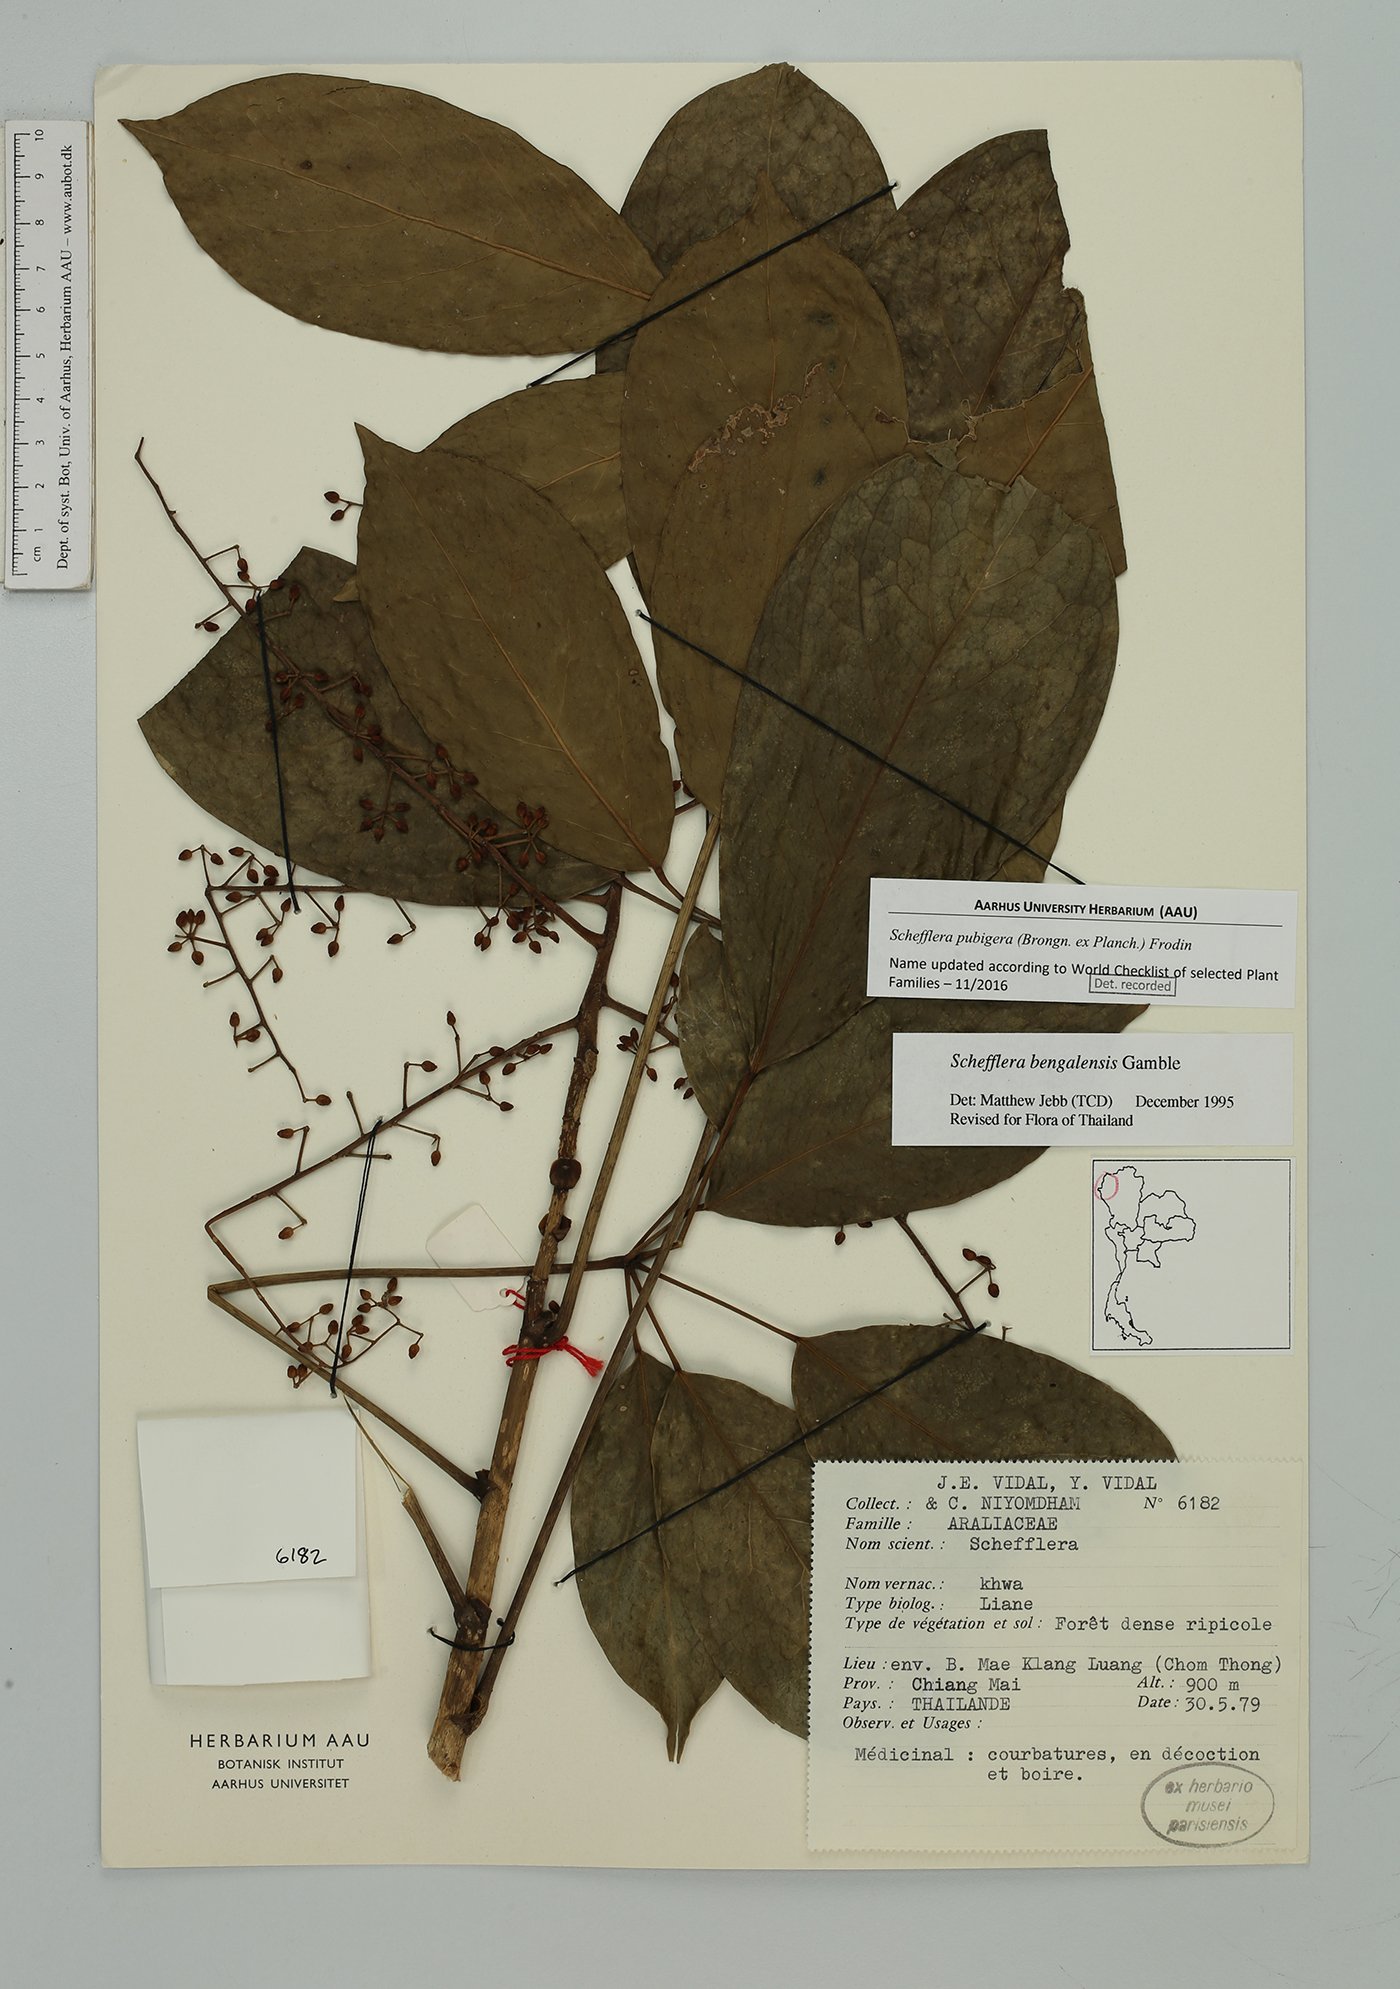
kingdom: Plantae
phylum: Tracheophyta
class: Magnoliopsida
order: Apiales
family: Araliaceae
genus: Heptapleurum
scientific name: Heptapleurum ellipticum
